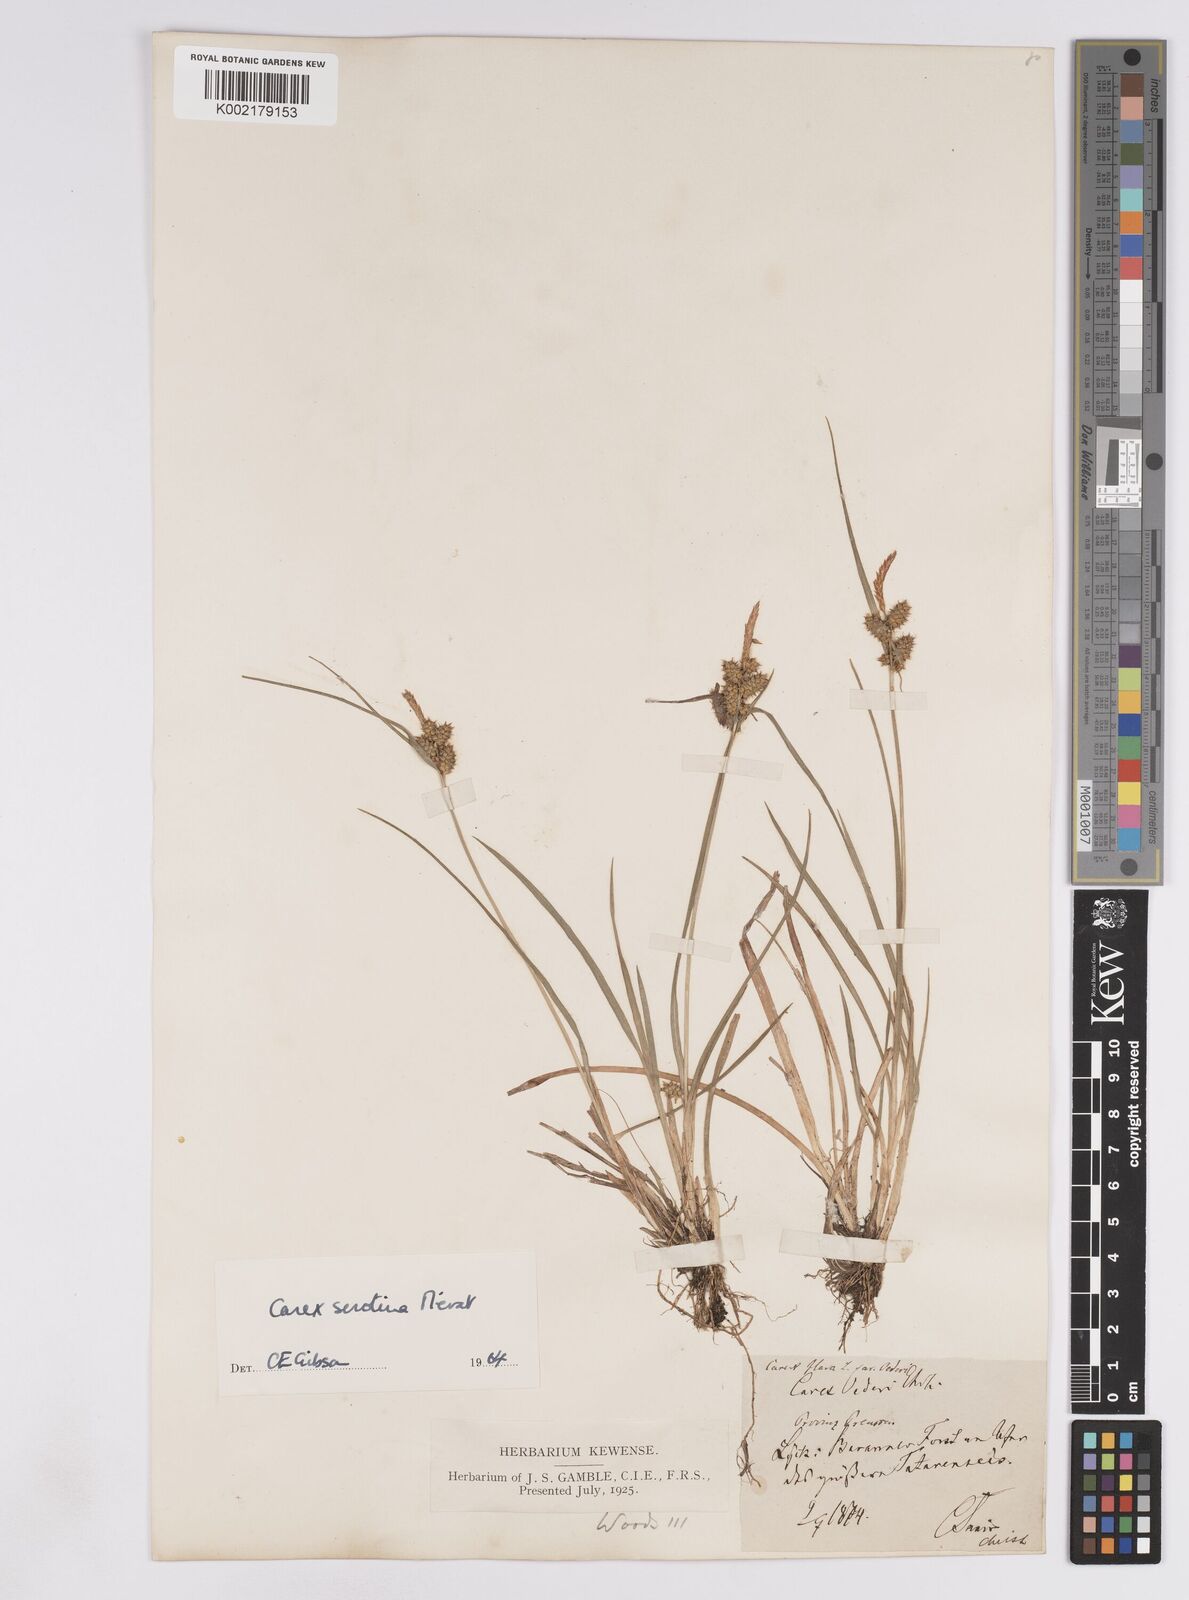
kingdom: Plantae
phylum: Tracheophyta
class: Liliopsida
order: Poales
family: Cyperaceae
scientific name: Cyperaceae
